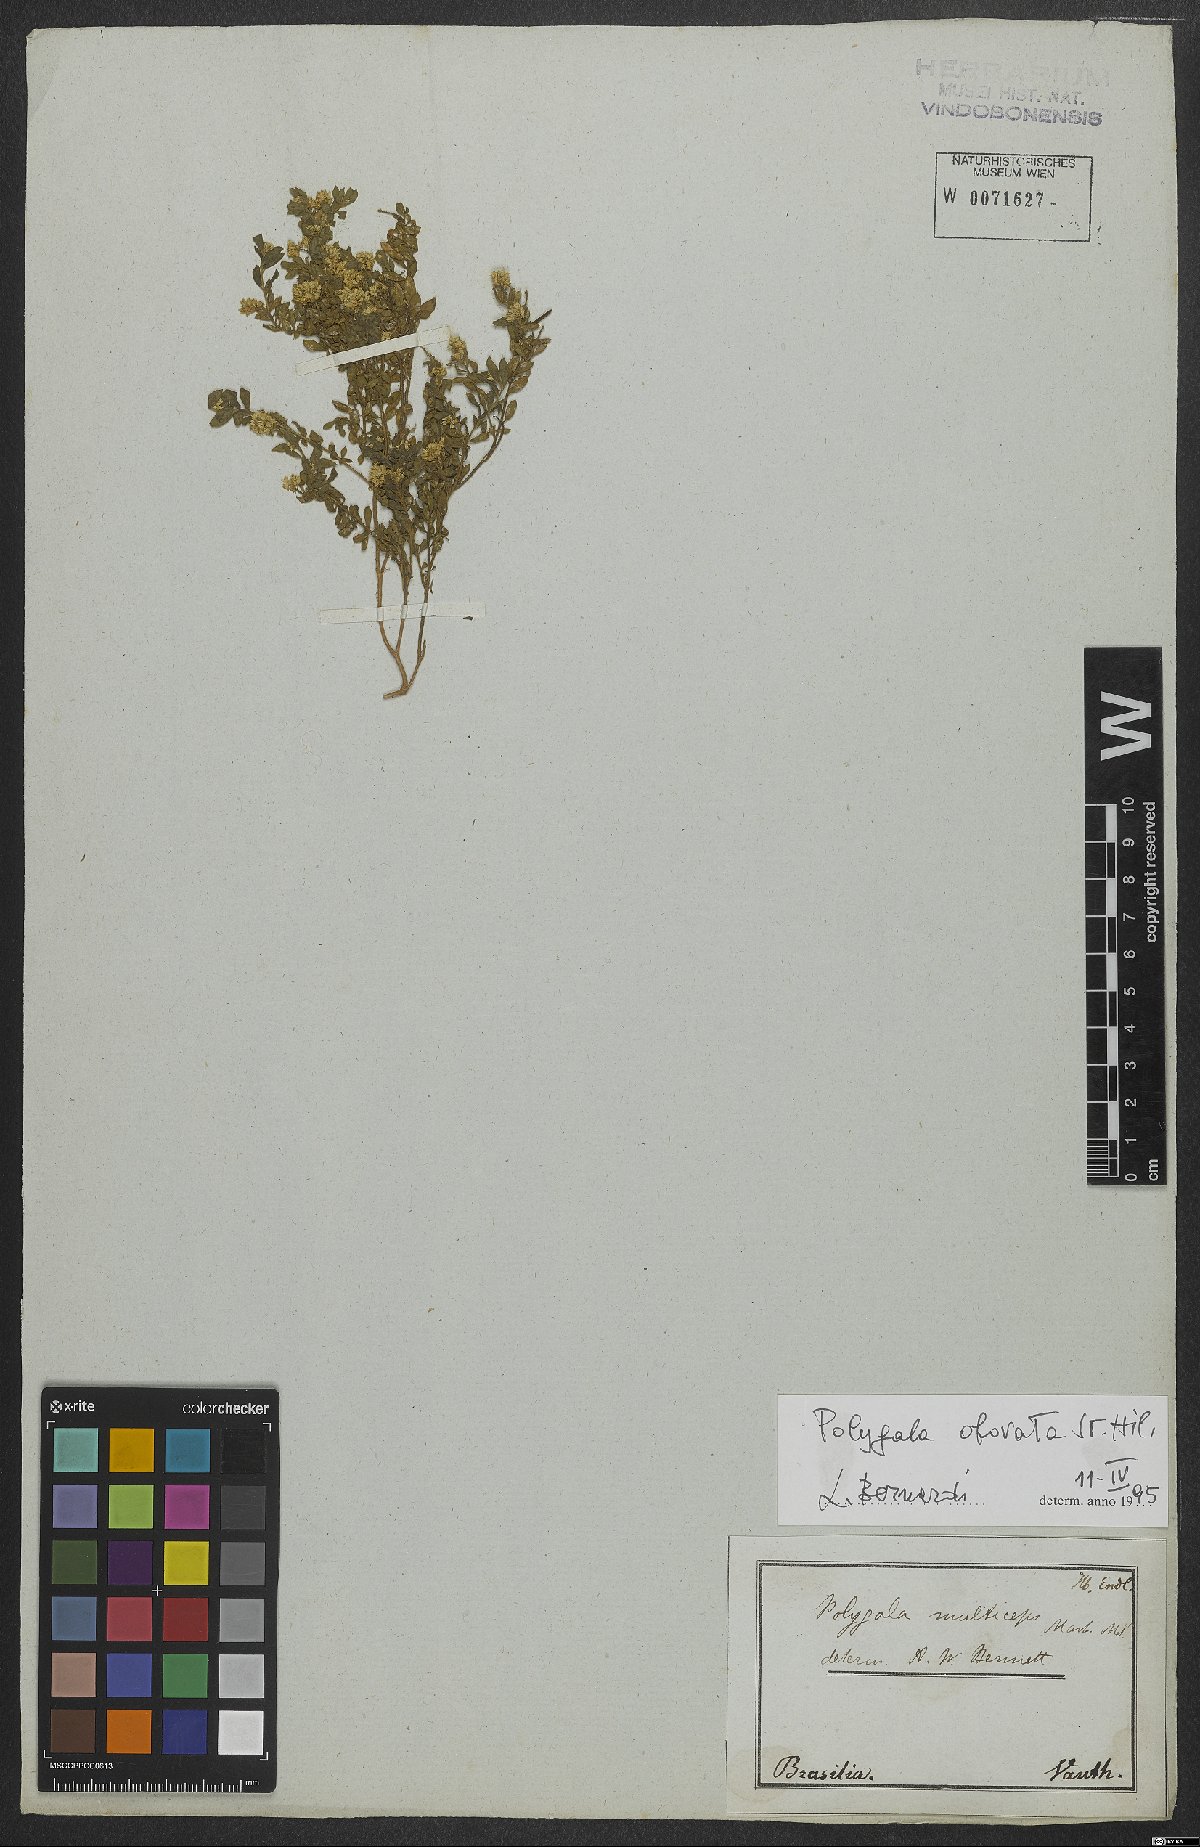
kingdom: Plantae
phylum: Tracheophyta
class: Magnoliopsida
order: Fabales
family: Polygalaceae
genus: Polygala
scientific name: Polygala obovata
